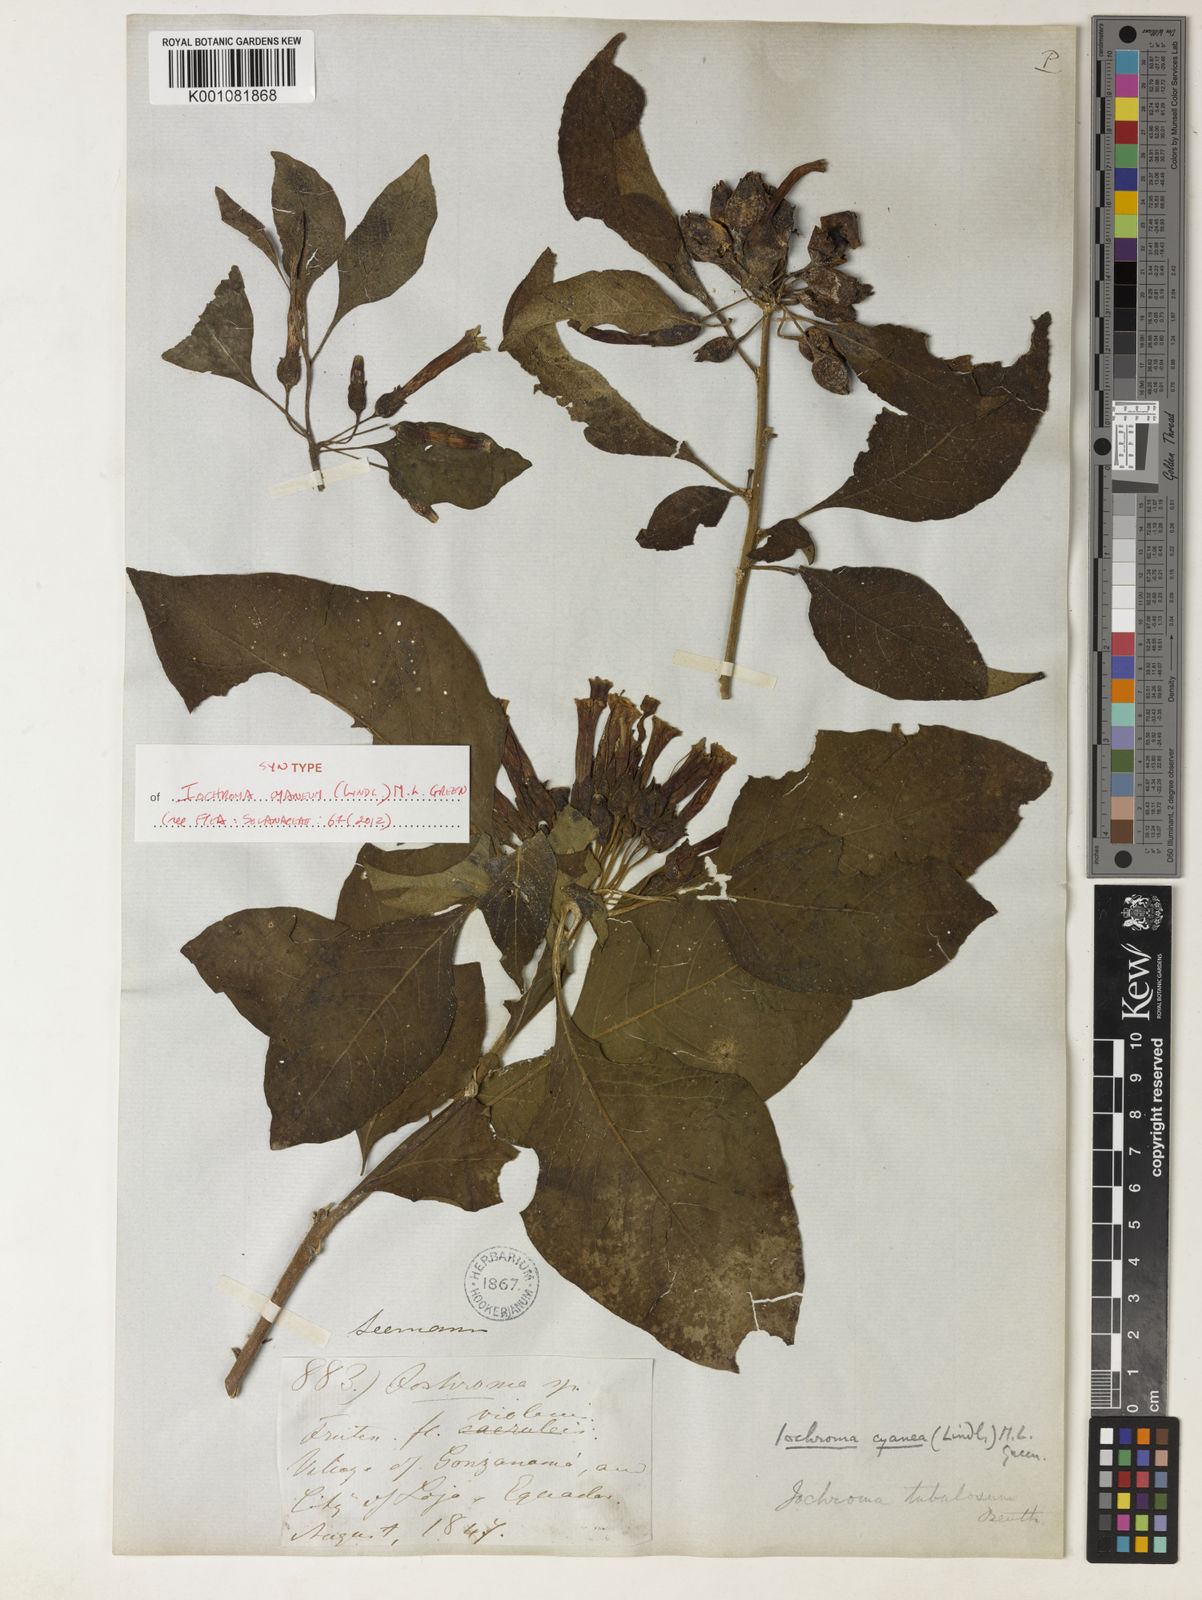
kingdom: Plantae
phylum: Tracheophyta
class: Magnoliopsida
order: Solanales
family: Solanaceae
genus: Iochroma
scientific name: Iochroma cyaneum
